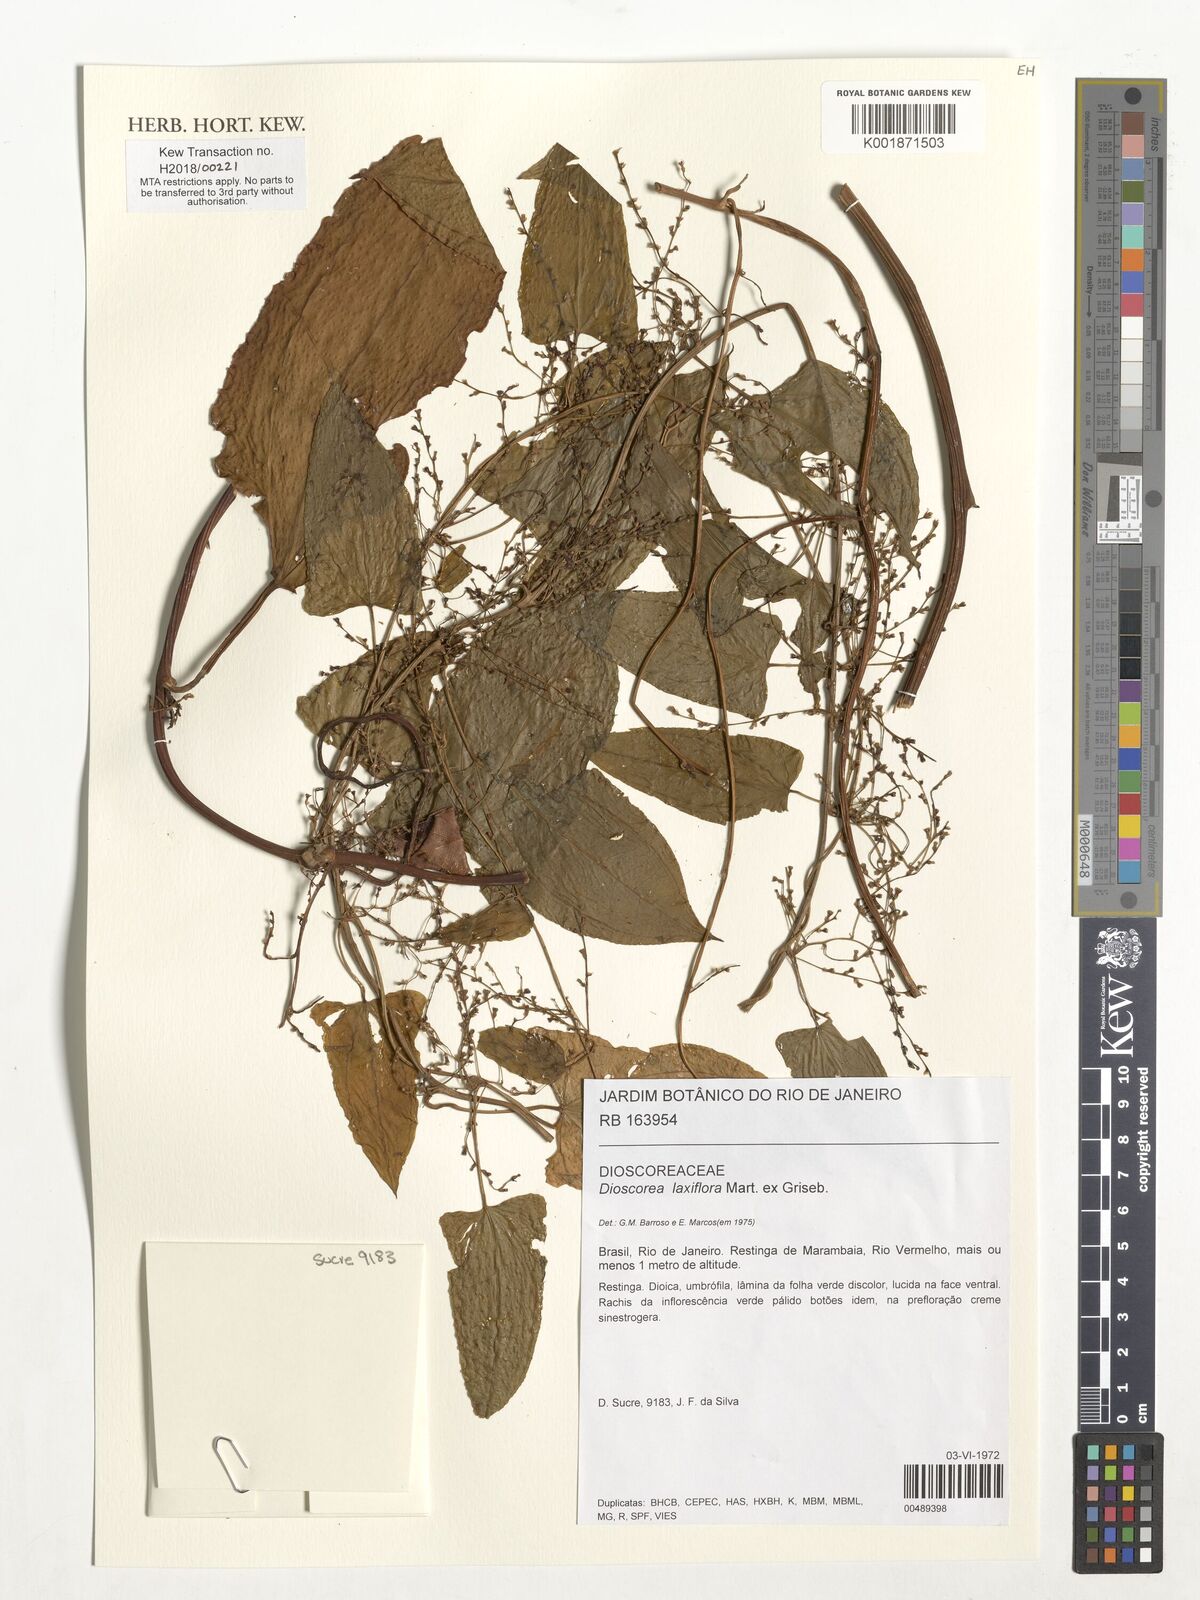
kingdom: Plantae
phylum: Tracheophyta
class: Liliopsida
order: Dioscoreales
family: Dioscoreaceae
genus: Dioscorea
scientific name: Dioscorea laxiflora
